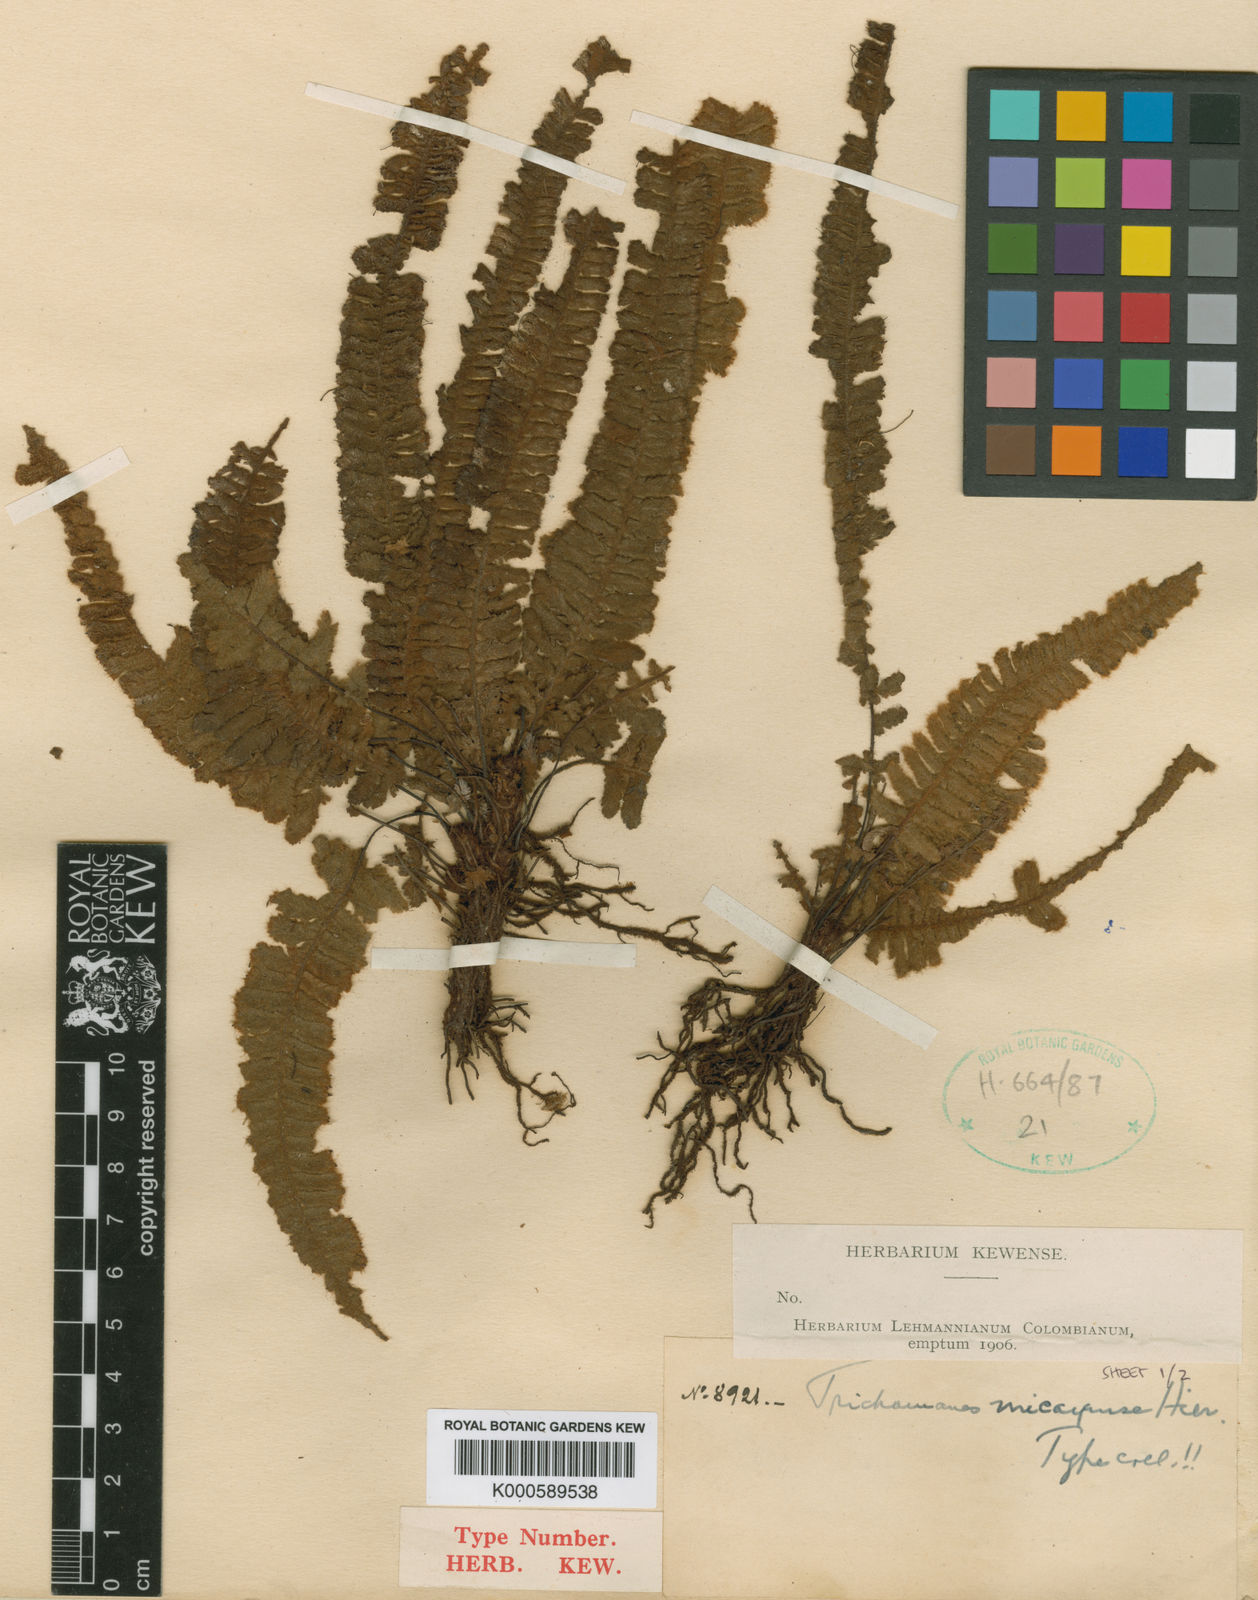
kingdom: Plantae
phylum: Tracheophyta
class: Polypodiopsida
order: Hymenophyllales
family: Hymenophyllaceae
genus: Trichomanes
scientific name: Trichomanes micayense
